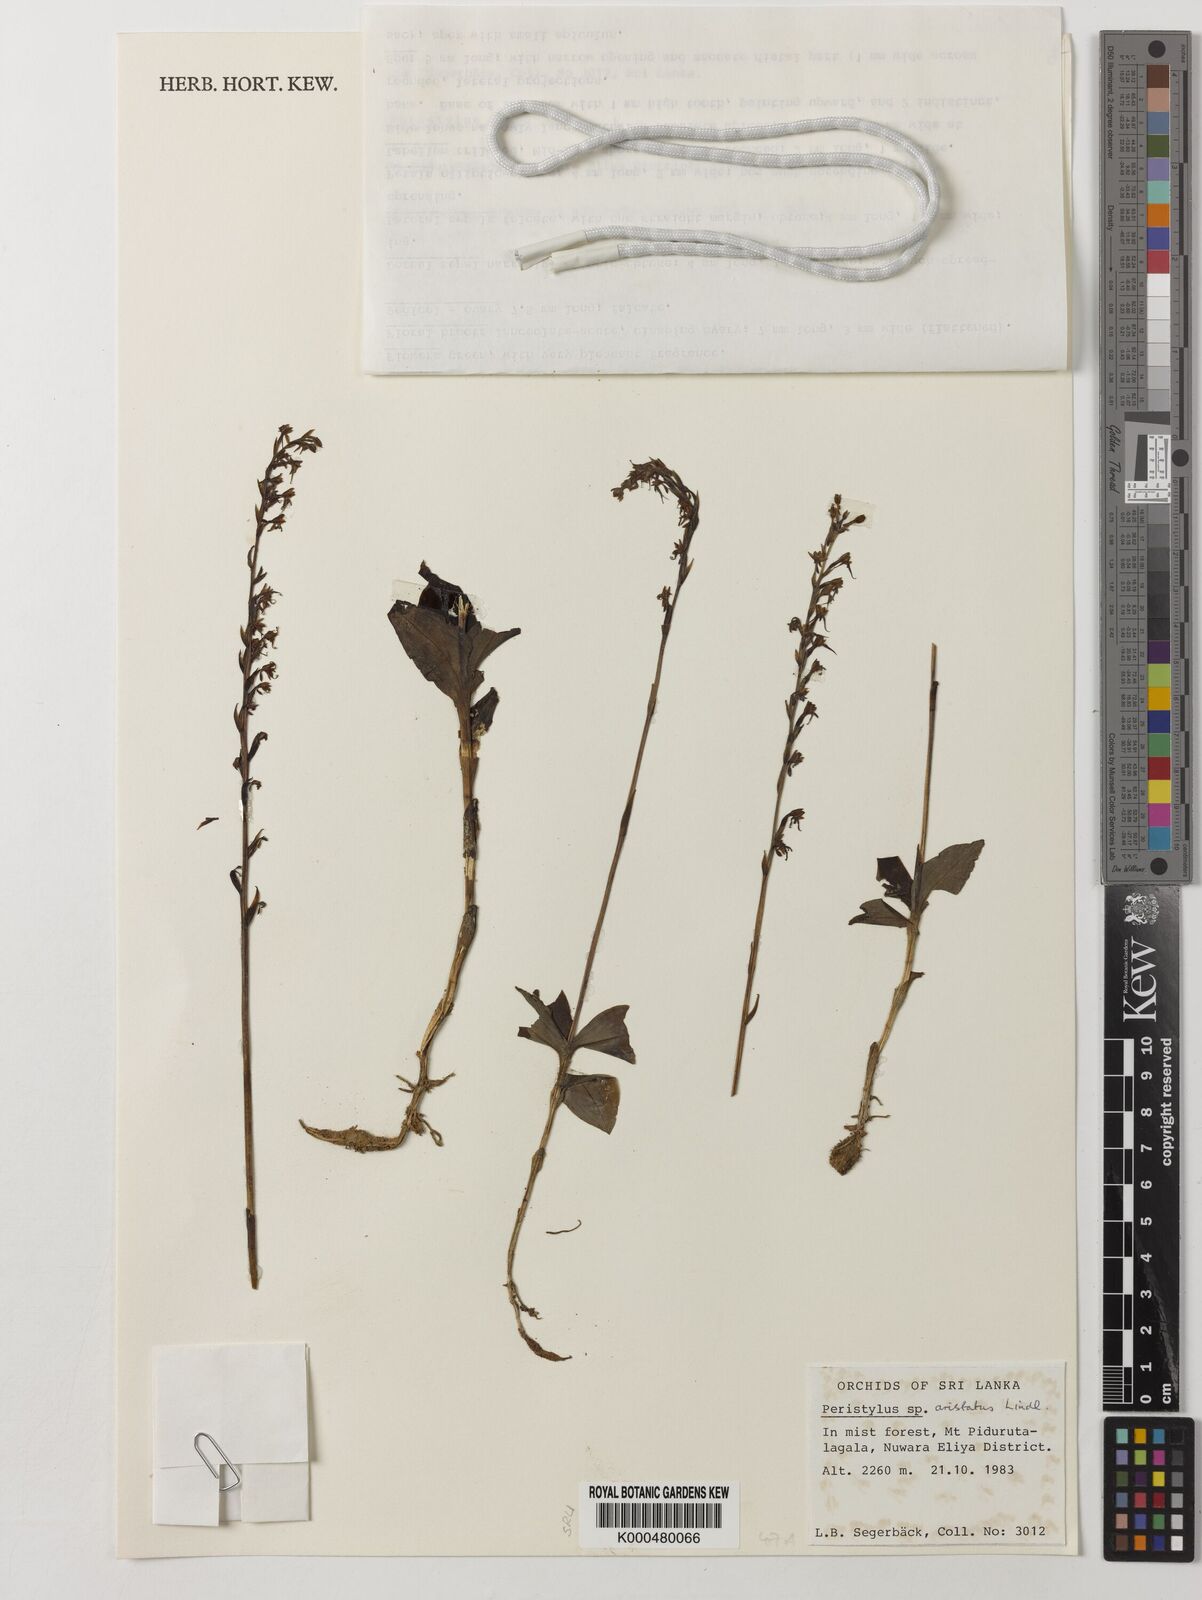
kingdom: Plantae
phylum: Tracheophyta
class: Liliopsida
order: Asparagales
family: Orchidaceae
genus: Peristylus
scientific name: Peristylus aristatus
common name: The spiked peristylus
